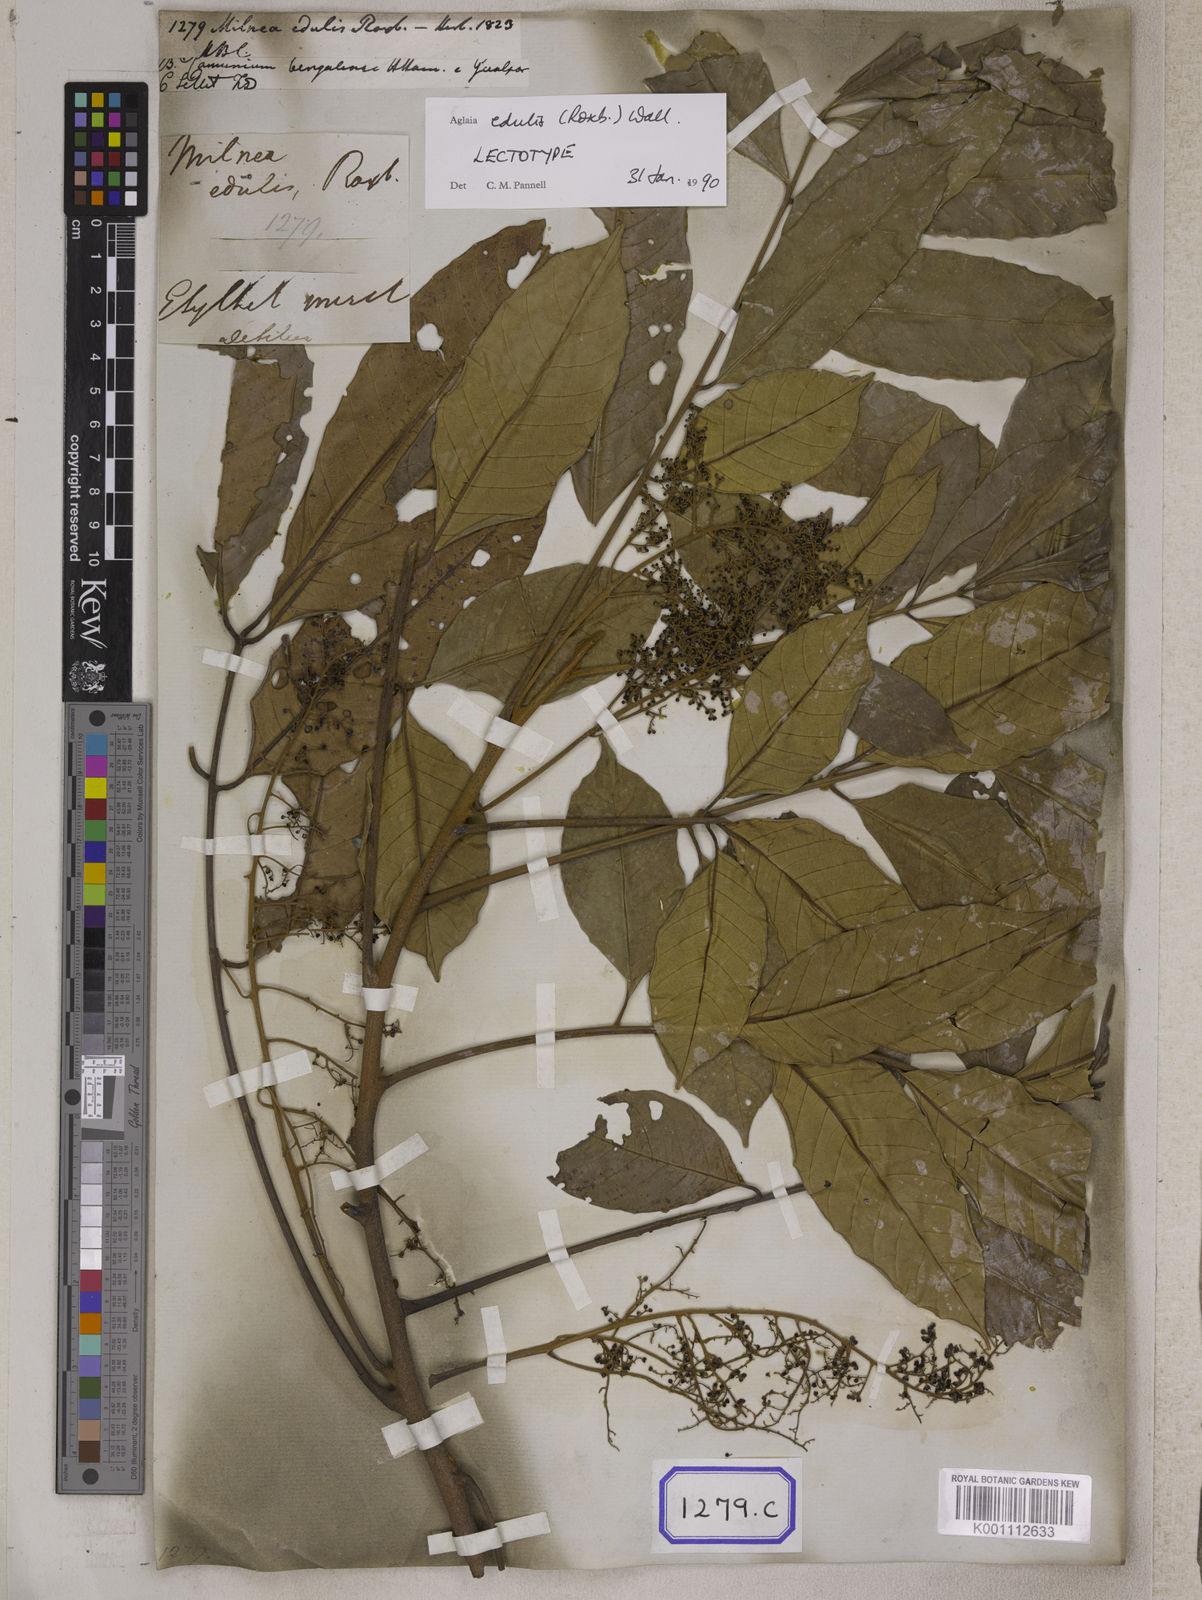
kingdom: Plantae
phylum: Tracheophyta
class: Magnoliopsida
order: Sapindales
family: Meliaceae
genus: Aglaia
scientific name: Aglaia edulis
